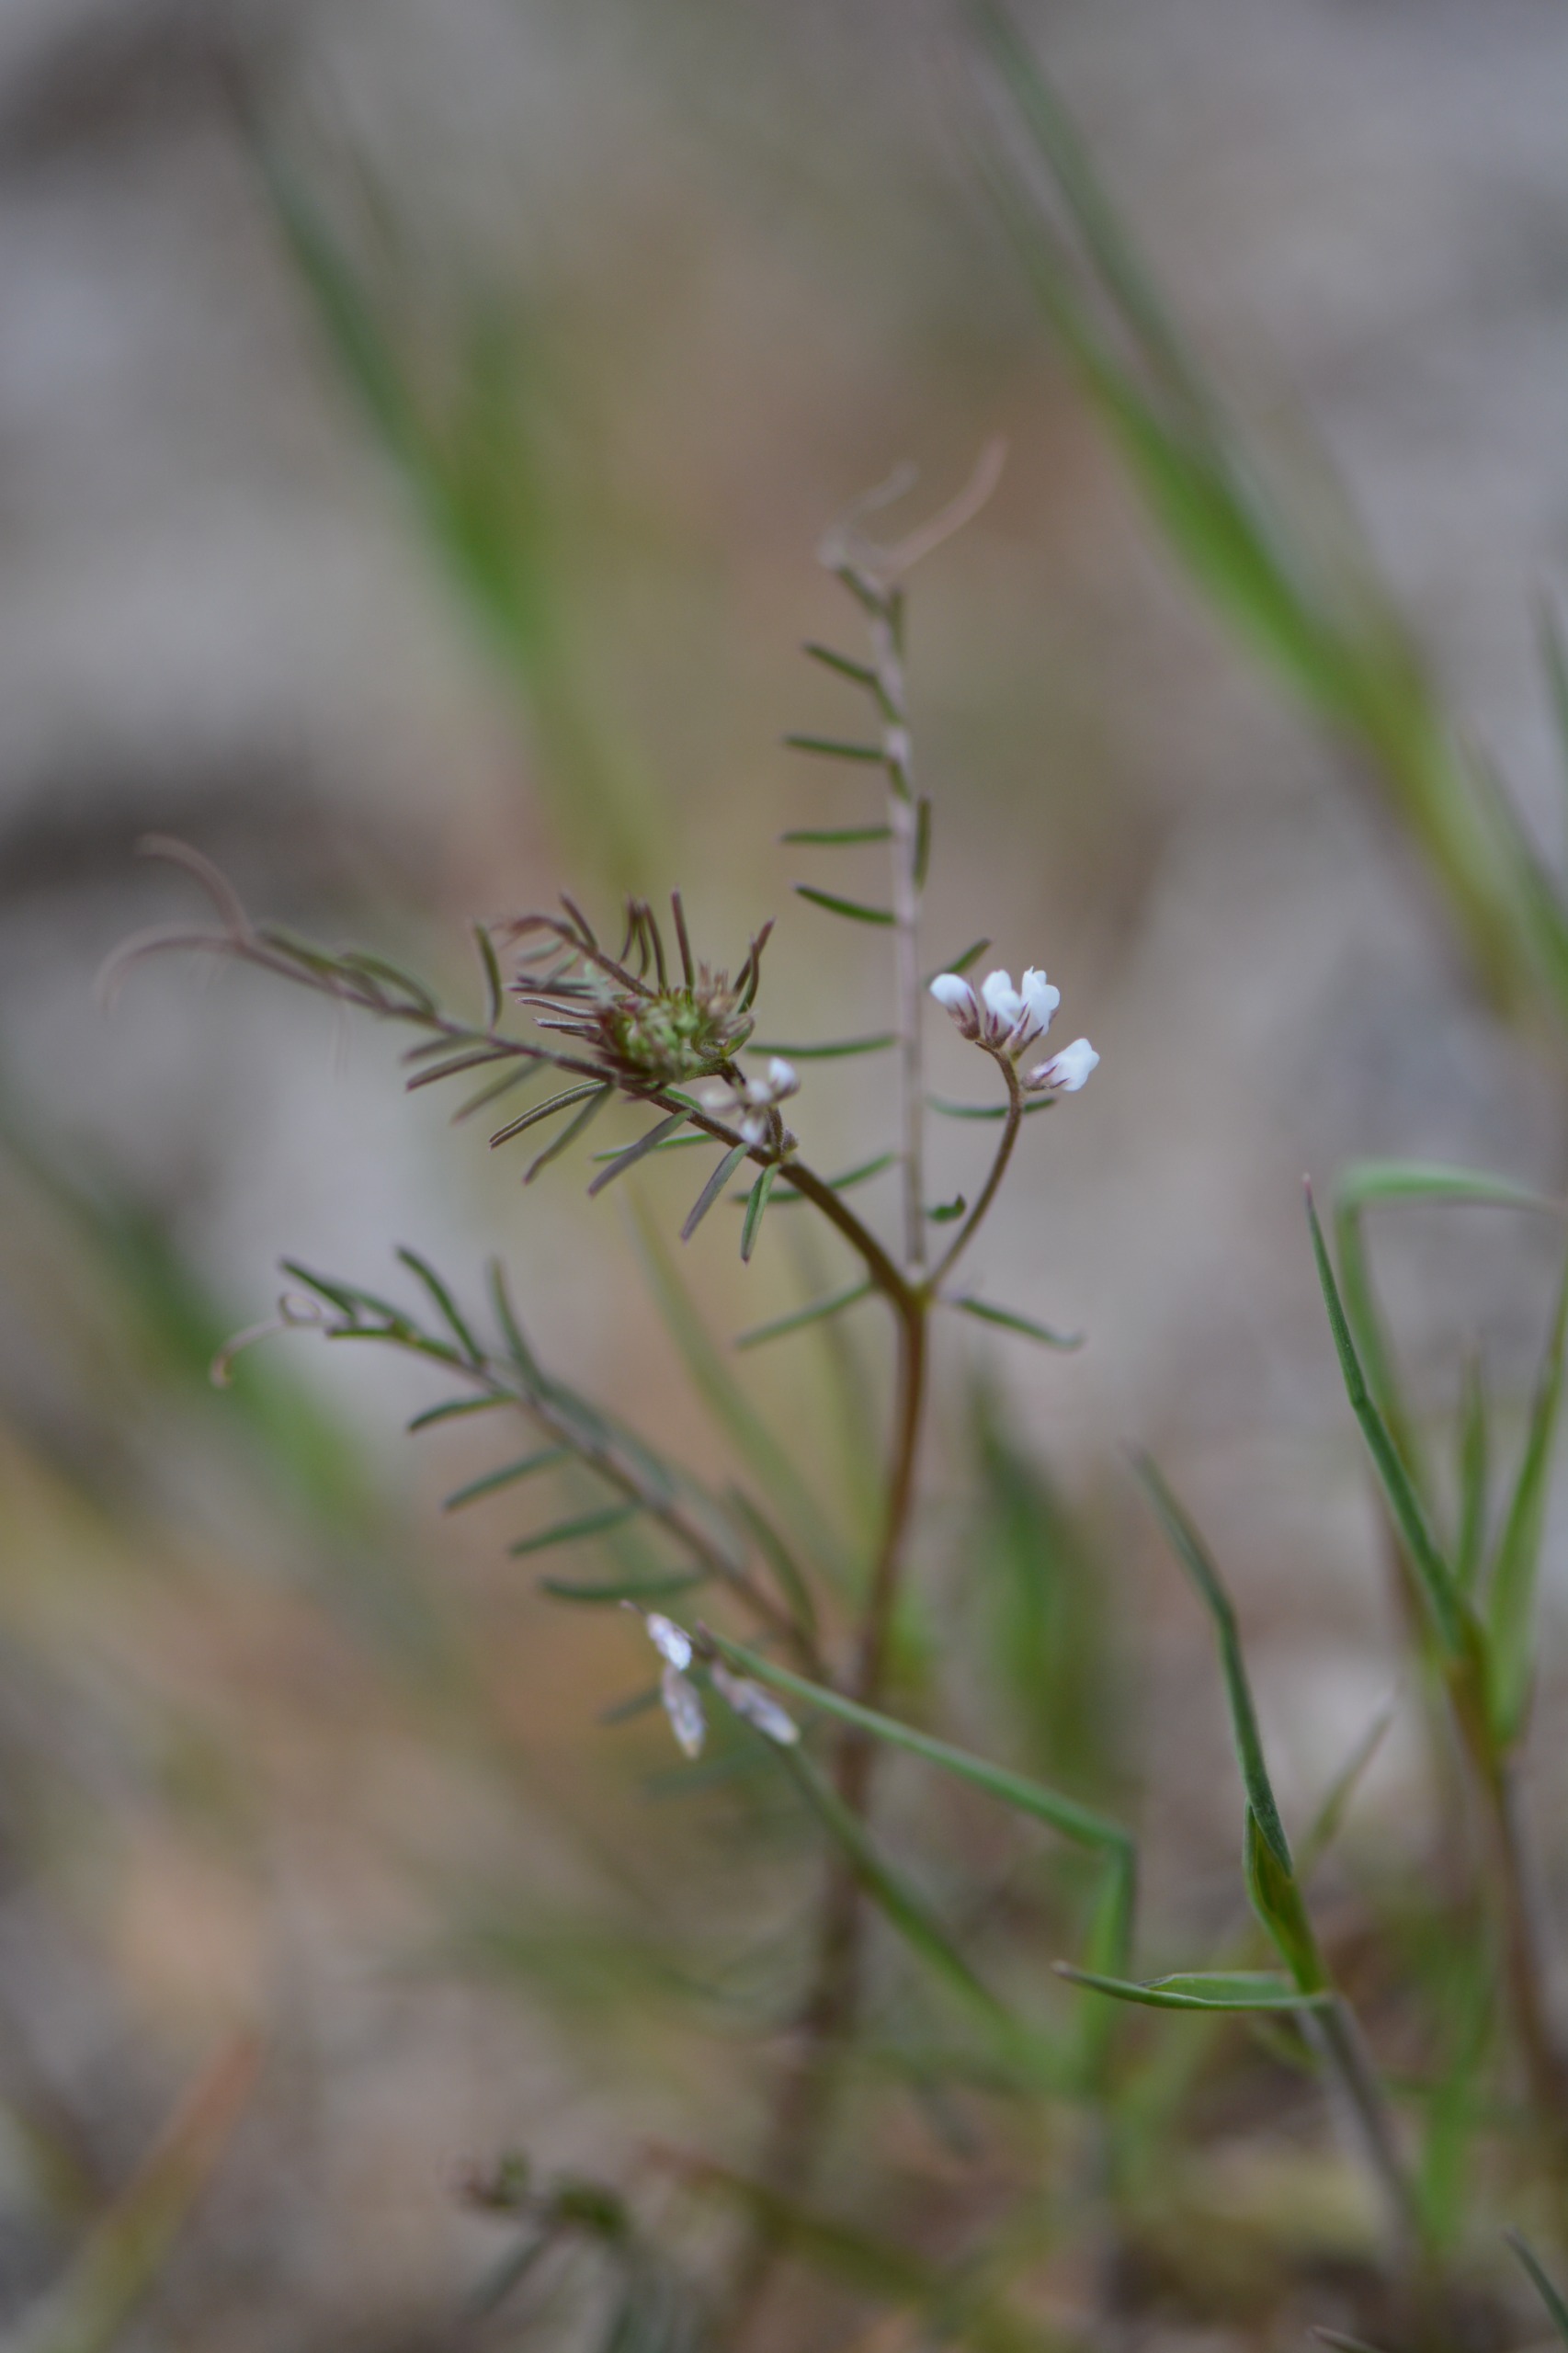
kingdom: Plantae
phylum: Tracheophyta
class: Magnoliopsida
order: Fabales
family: Fabaceae
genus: Vicia
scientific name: Vicia hirsuta
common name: Tofrøet vikke
